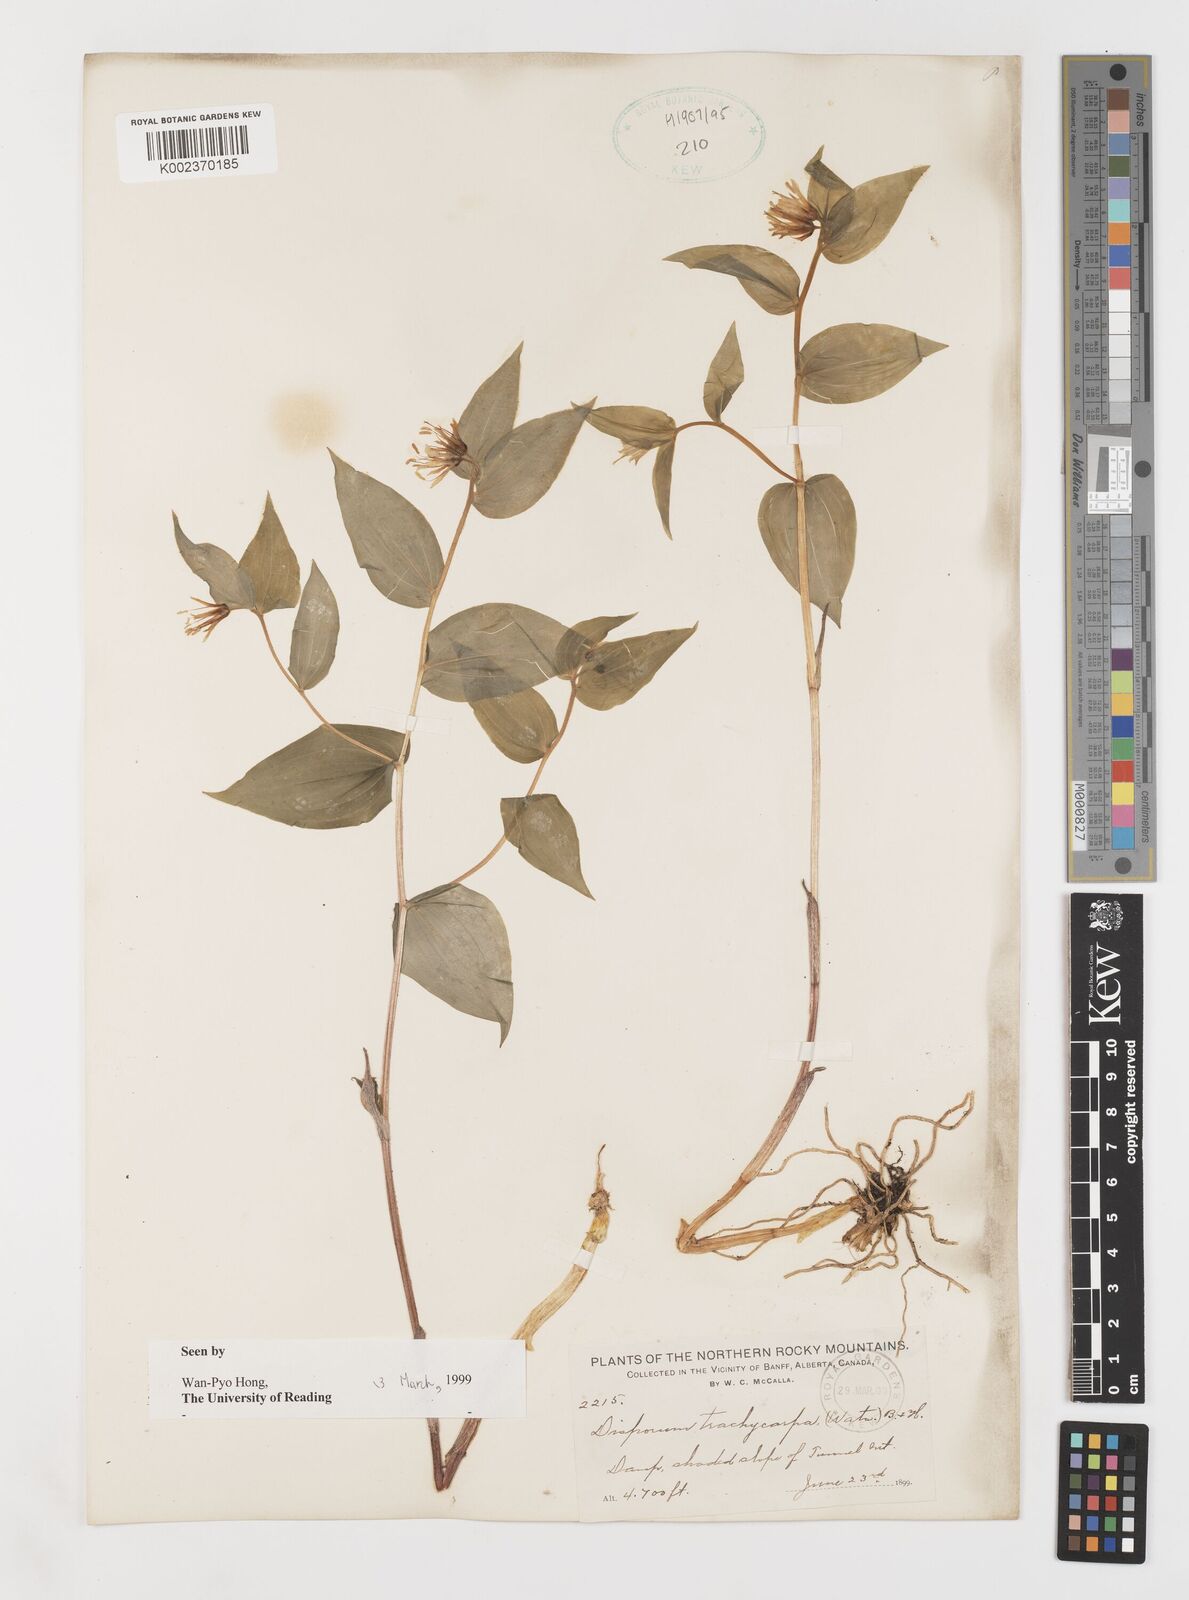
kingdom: Plantae
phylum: Tracheophyta
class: Liliopsida
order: Liliales
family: Liliaceae
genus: Prosartes
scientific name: Prosartes trachycarpa
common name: Rough-fruit fairy-bells
